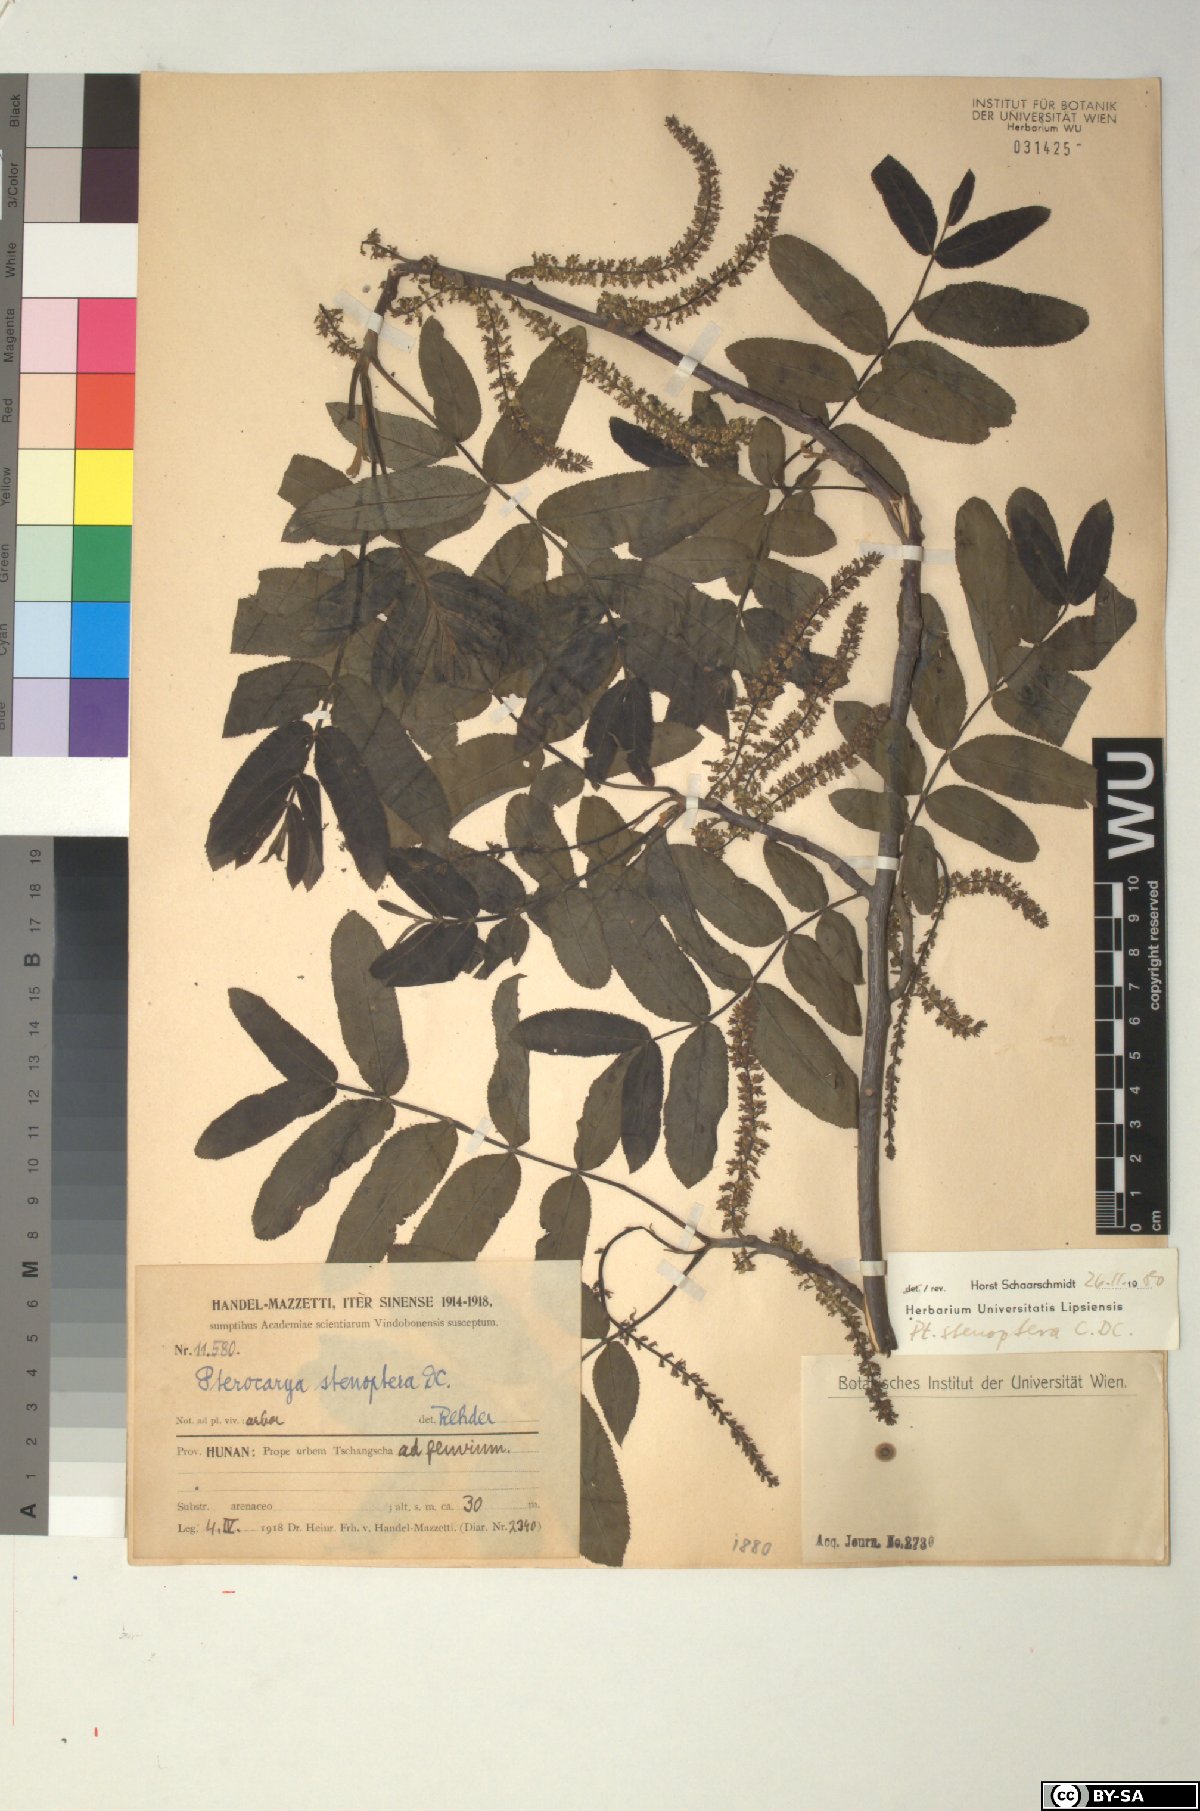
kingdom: Plantae
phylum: Tracheophyta
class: Magnoliopsida
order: Fagales
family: Juglandaceae
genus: Pterocarya
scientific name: Pterocarya stenoptera
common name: Chinese wingnut
